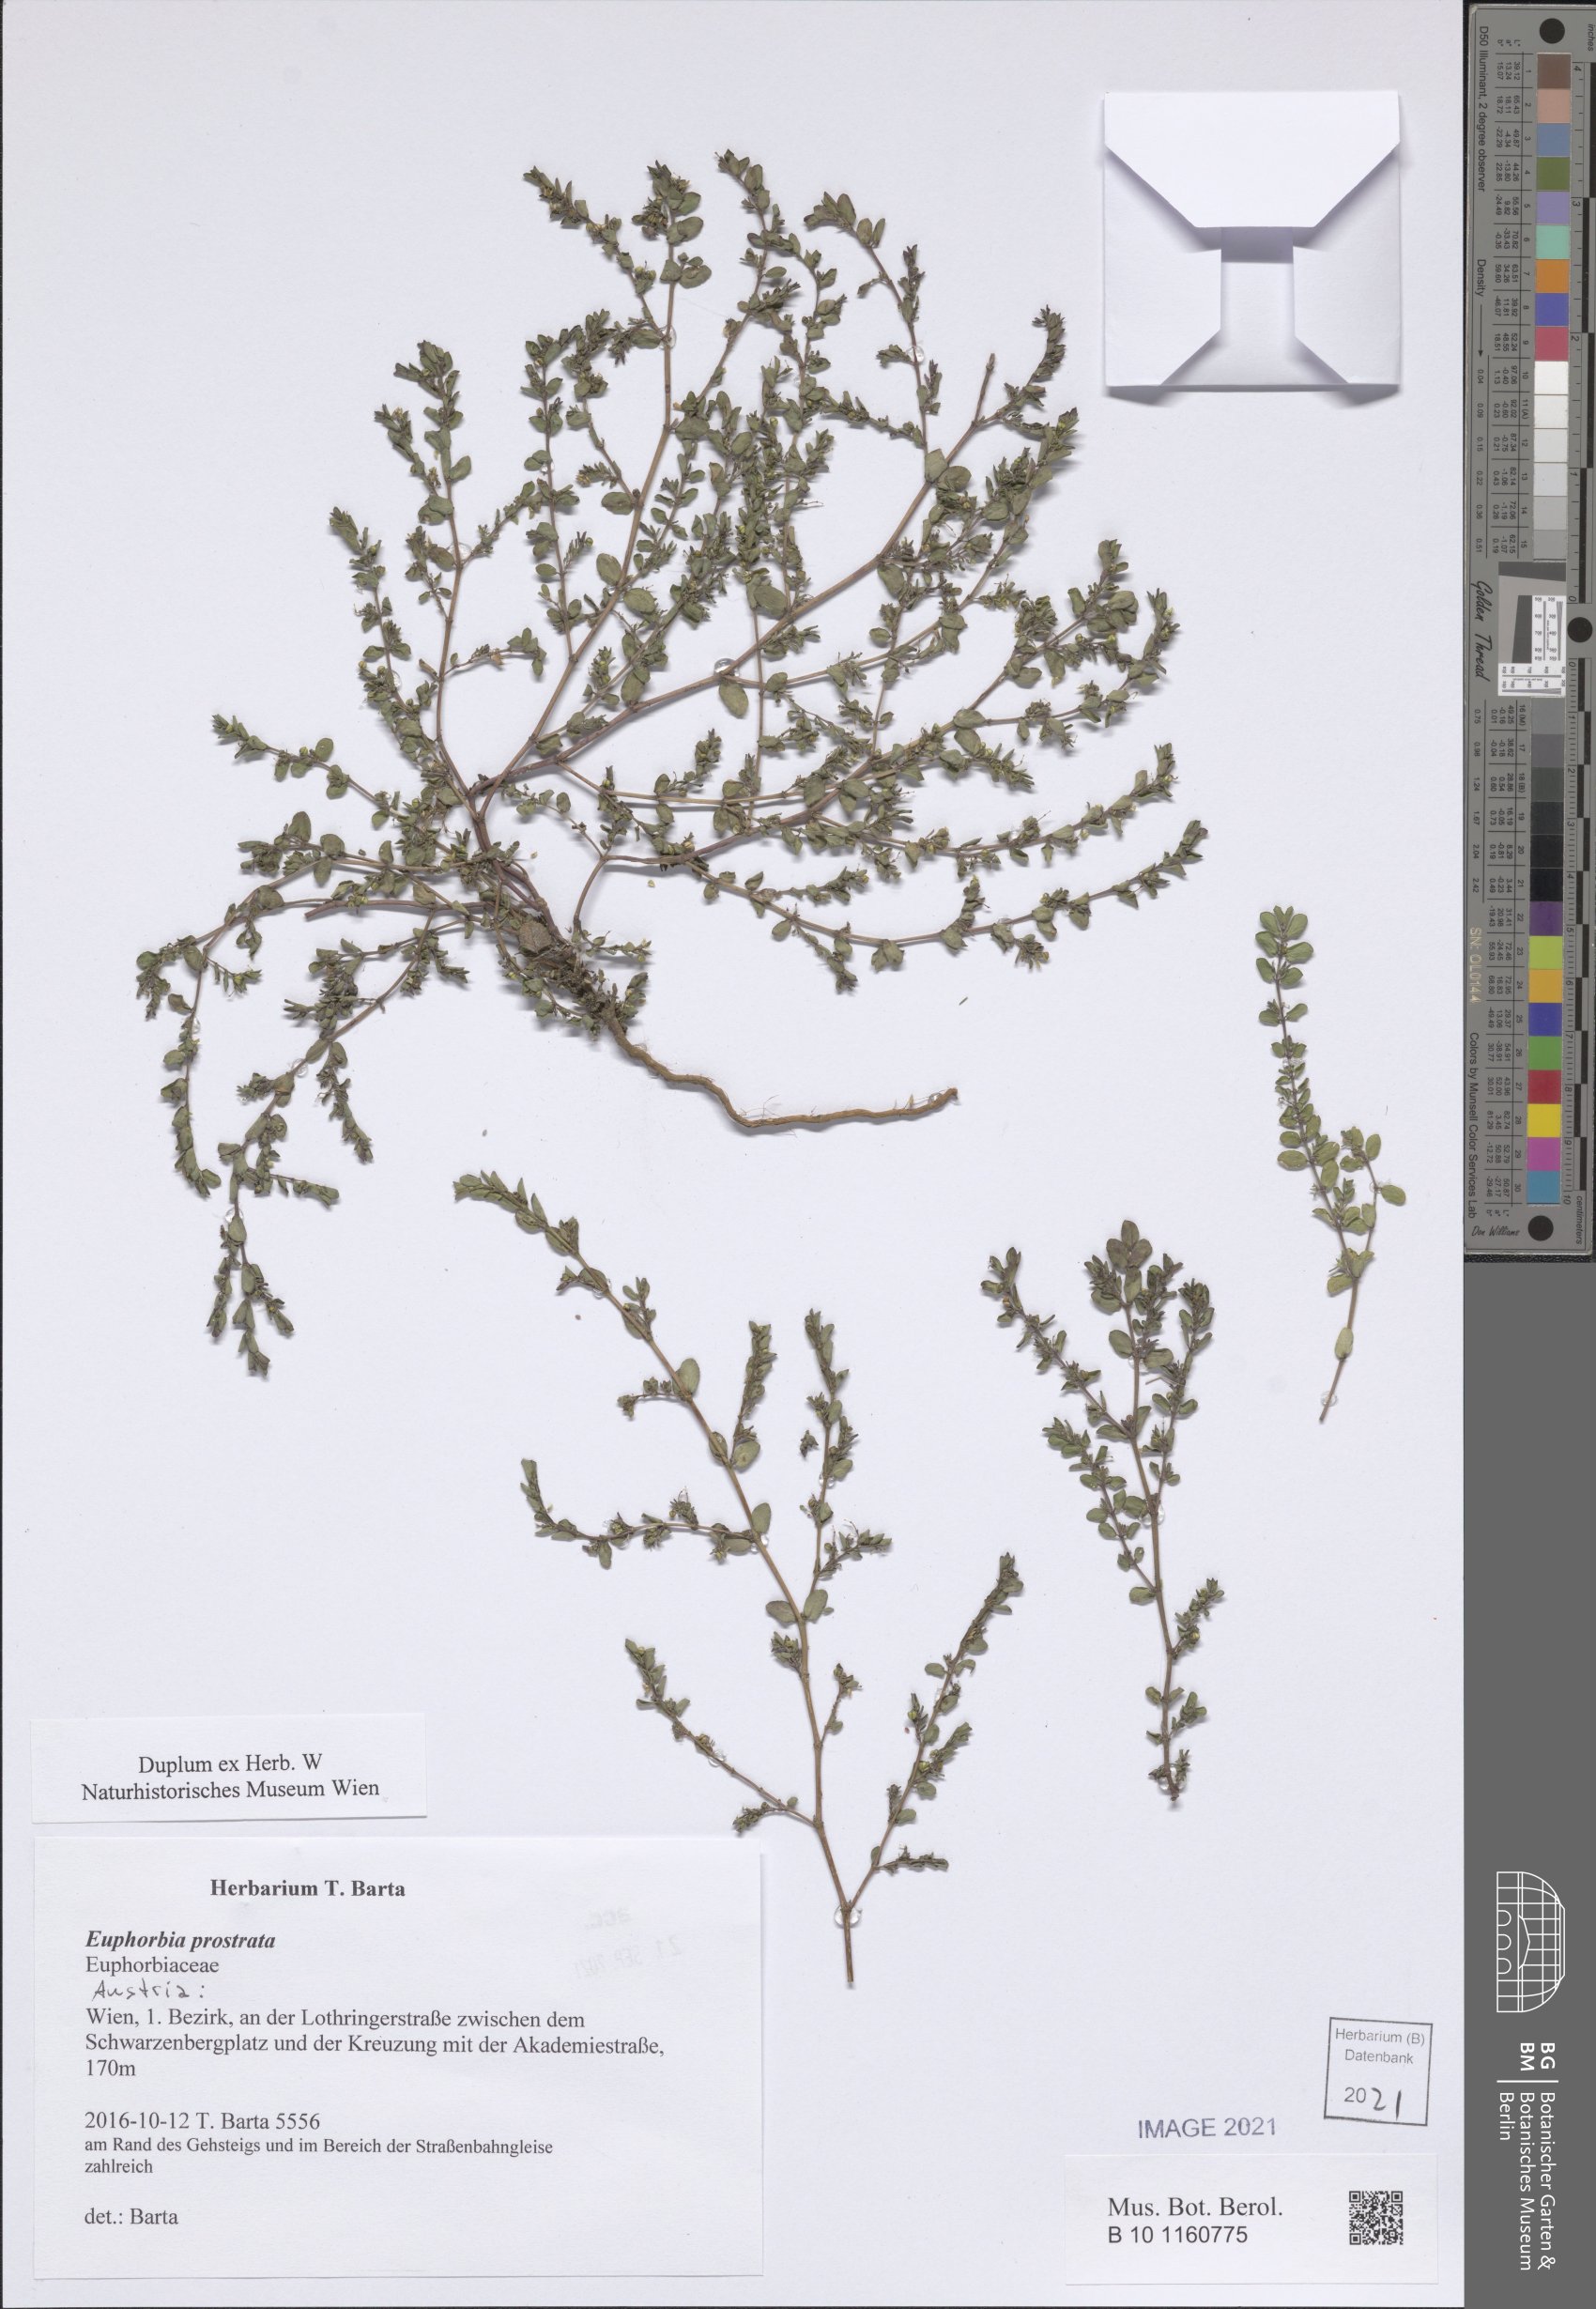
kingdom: Plantae
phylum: Tracheophyta
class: Magnoliopsida
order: Malpighiales
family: Euphorbiaceae
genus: Euphorbia
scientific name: Euphorbia prostrata
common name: Prostrate sandmat
